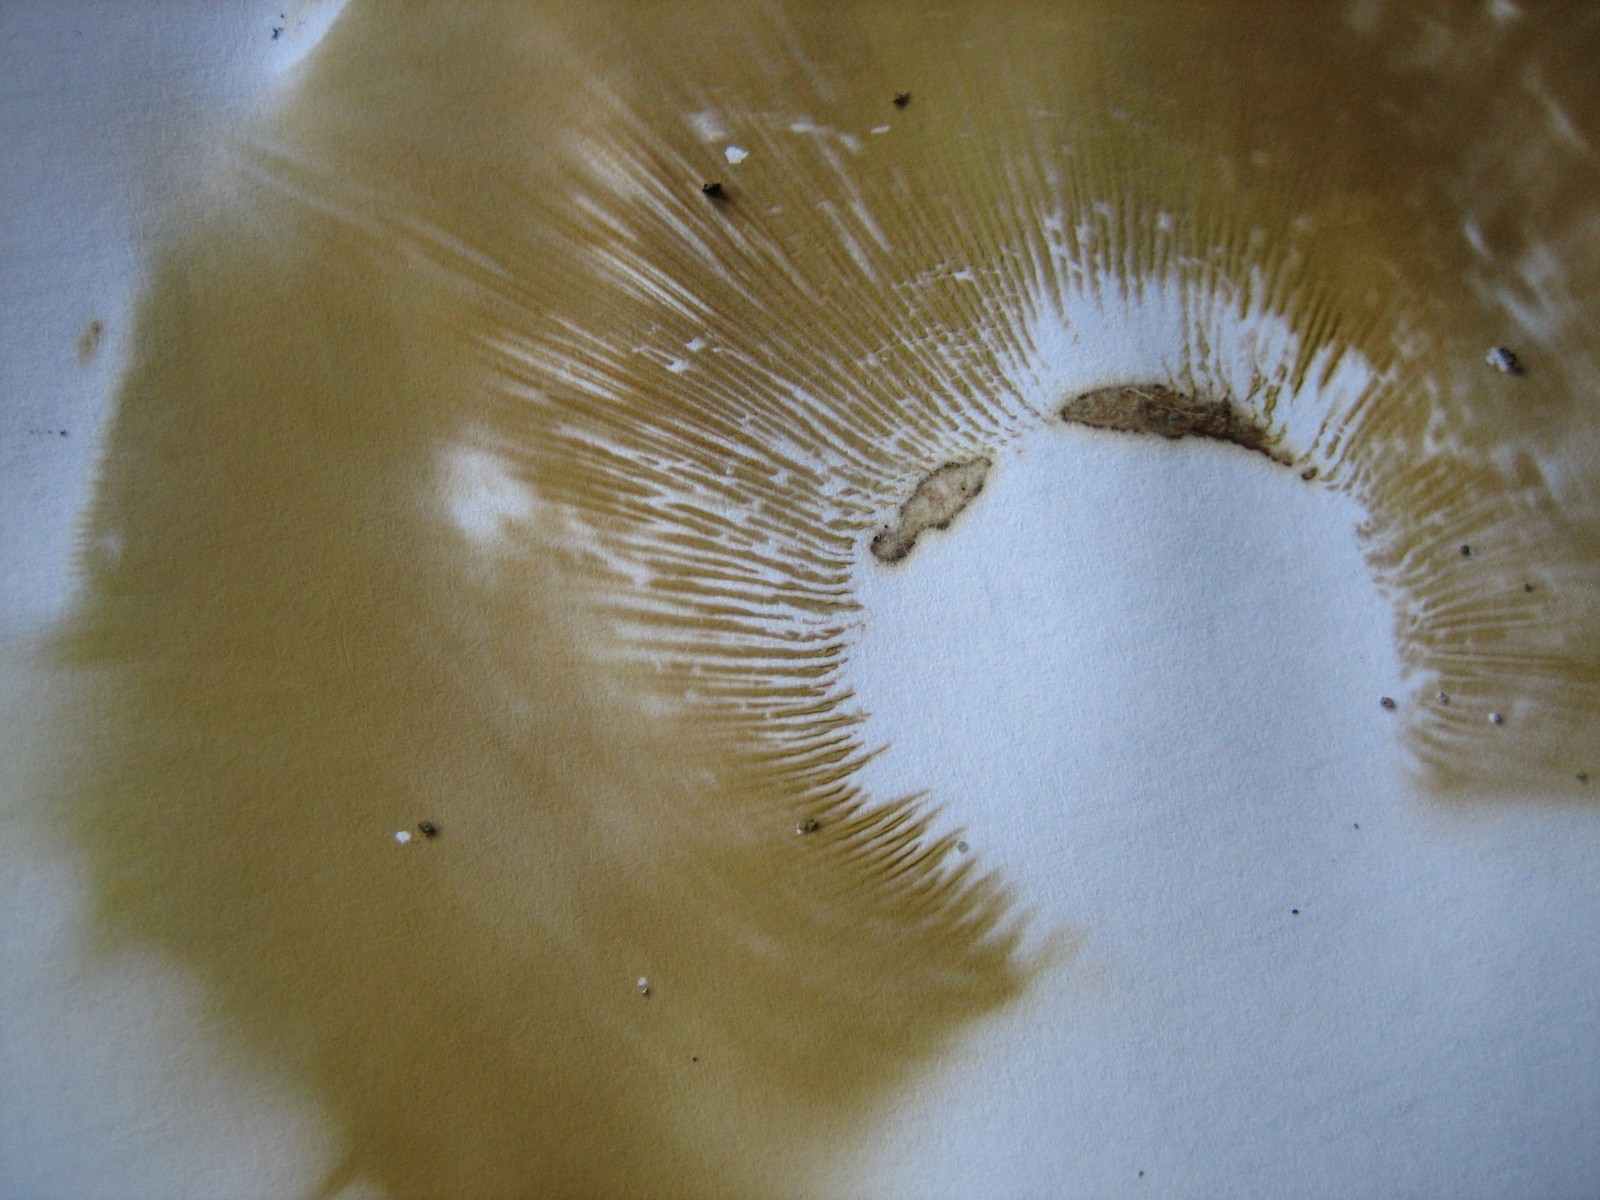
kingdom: Fungi
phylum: Basidiomycota
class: Agaricomycetes
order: Boletales
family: Paxillaceae
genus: Paxillus
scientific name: Paxillus ammoniavirescens
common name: olivensporet netbladhat
